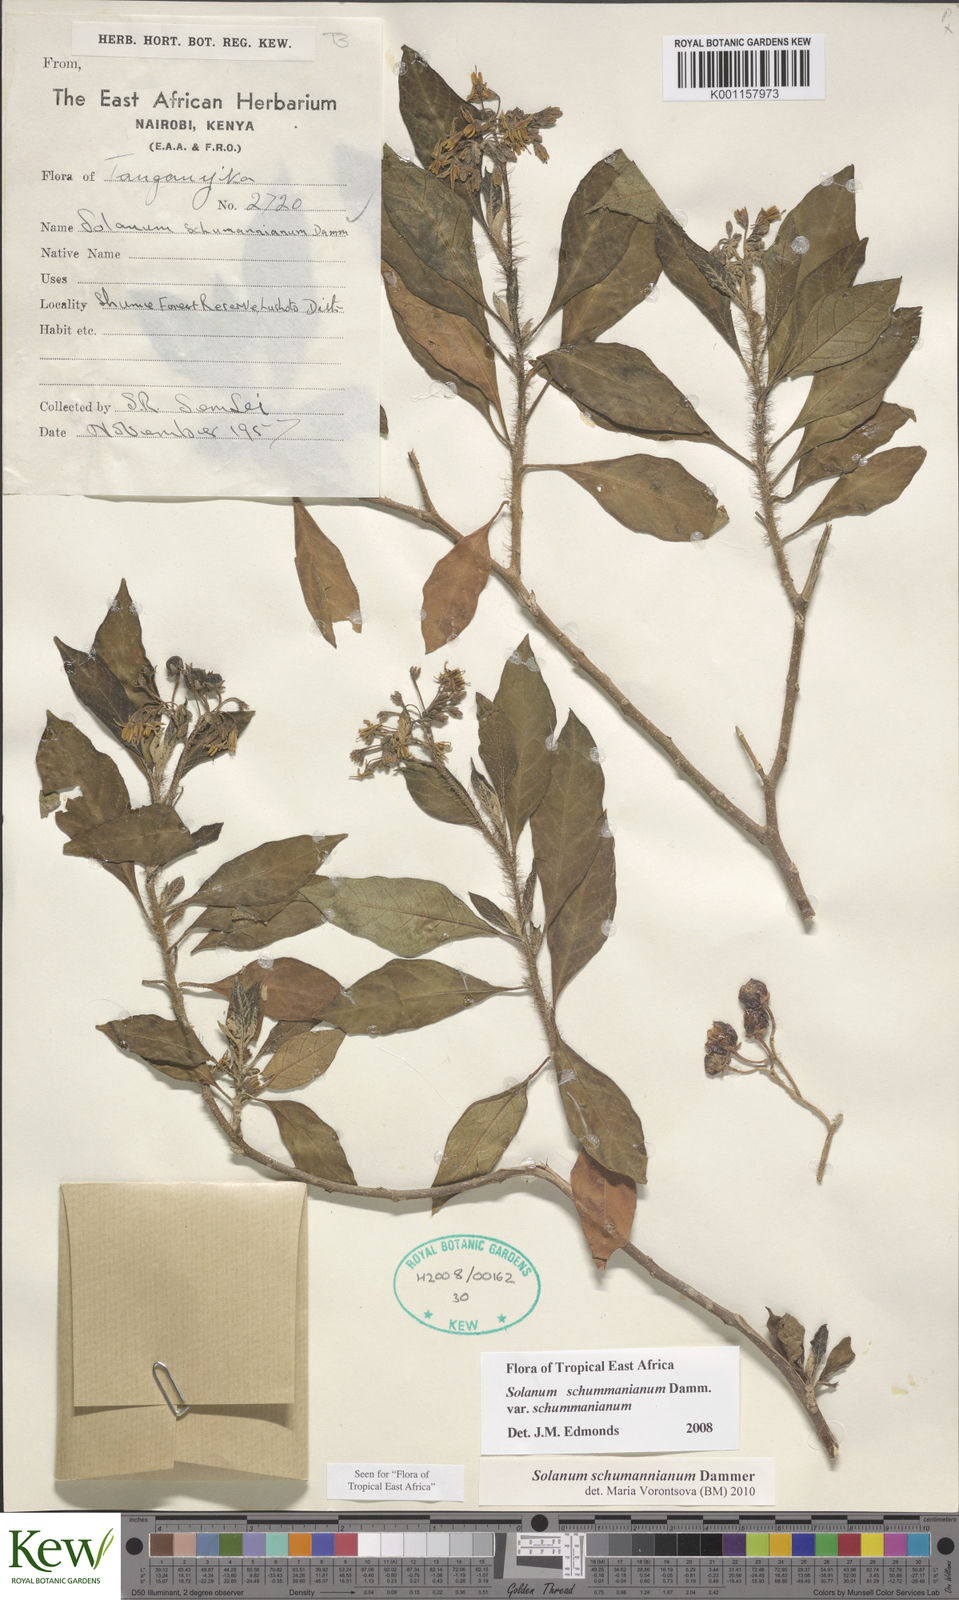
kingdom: Plantae
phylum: Tracheophyta
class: Magnoliopsida
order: Solanales
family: Solanaceae
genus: Solanum
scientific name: Solanum schumannianum
